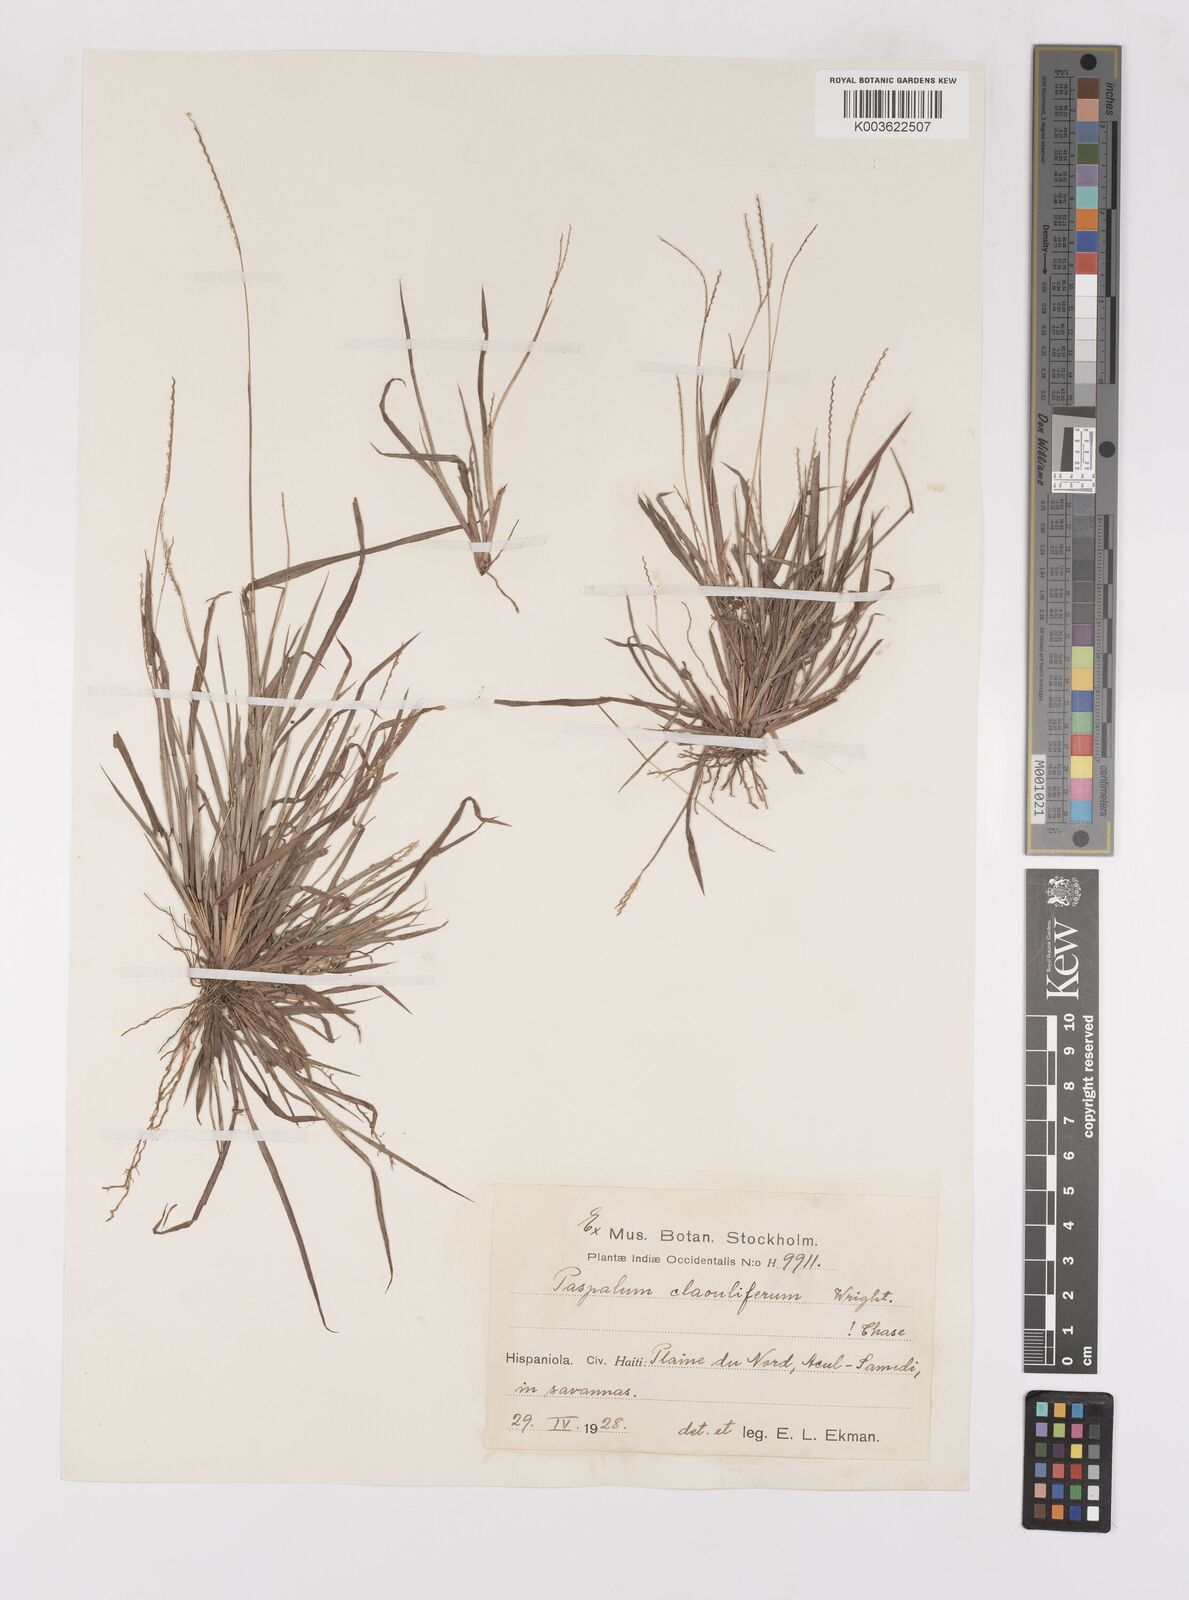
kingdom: Plantae
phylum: Tracheophyta
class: Liliopsida
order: Poales
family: Poaceae
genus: Paspalum
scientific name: Paspalum clavuliferum
